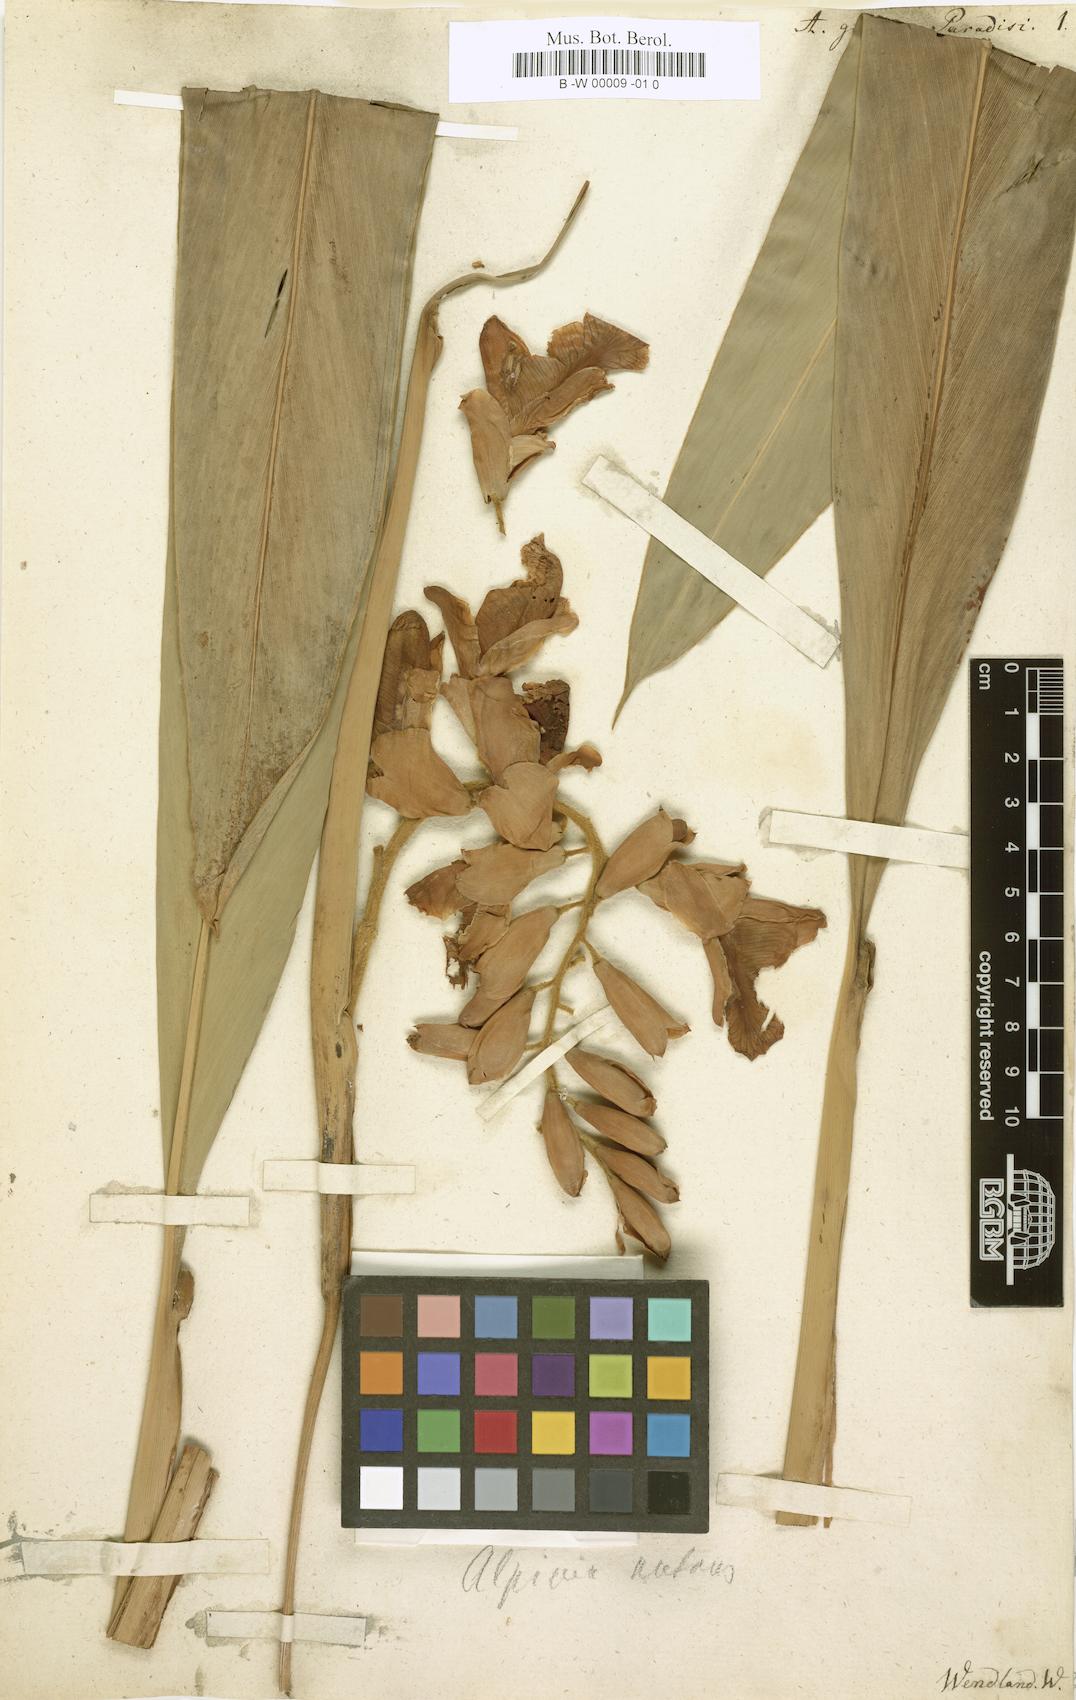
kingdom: Plantae
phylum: Tracheophyta
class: Liliopsida
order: Zingiberales
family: Zingiberaceae
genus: Amomum
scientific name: Amomum granum-paradisi
